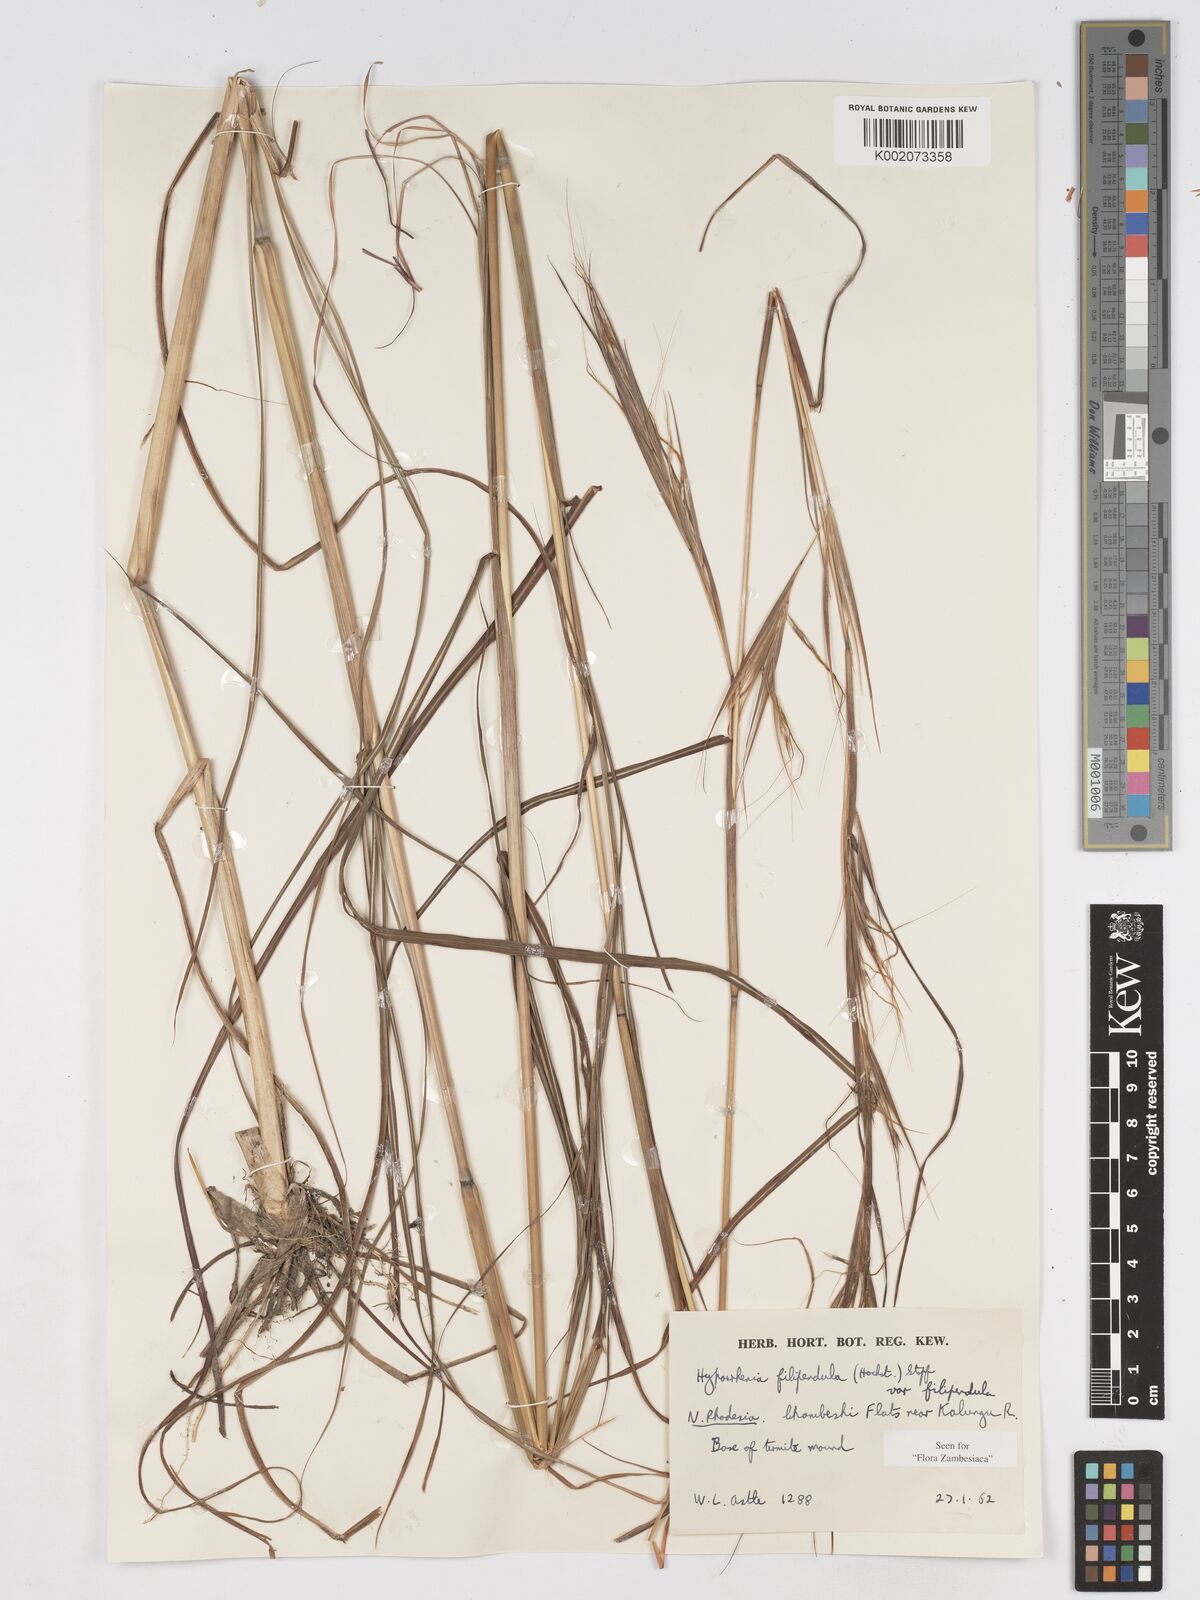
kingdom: Plantae
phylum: Tracheophyta
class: Liliopsida
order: Poales
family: Poaceae
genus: Hyparrhenia
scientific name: Hyparrhenia filipendula
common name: Tambookie grass
